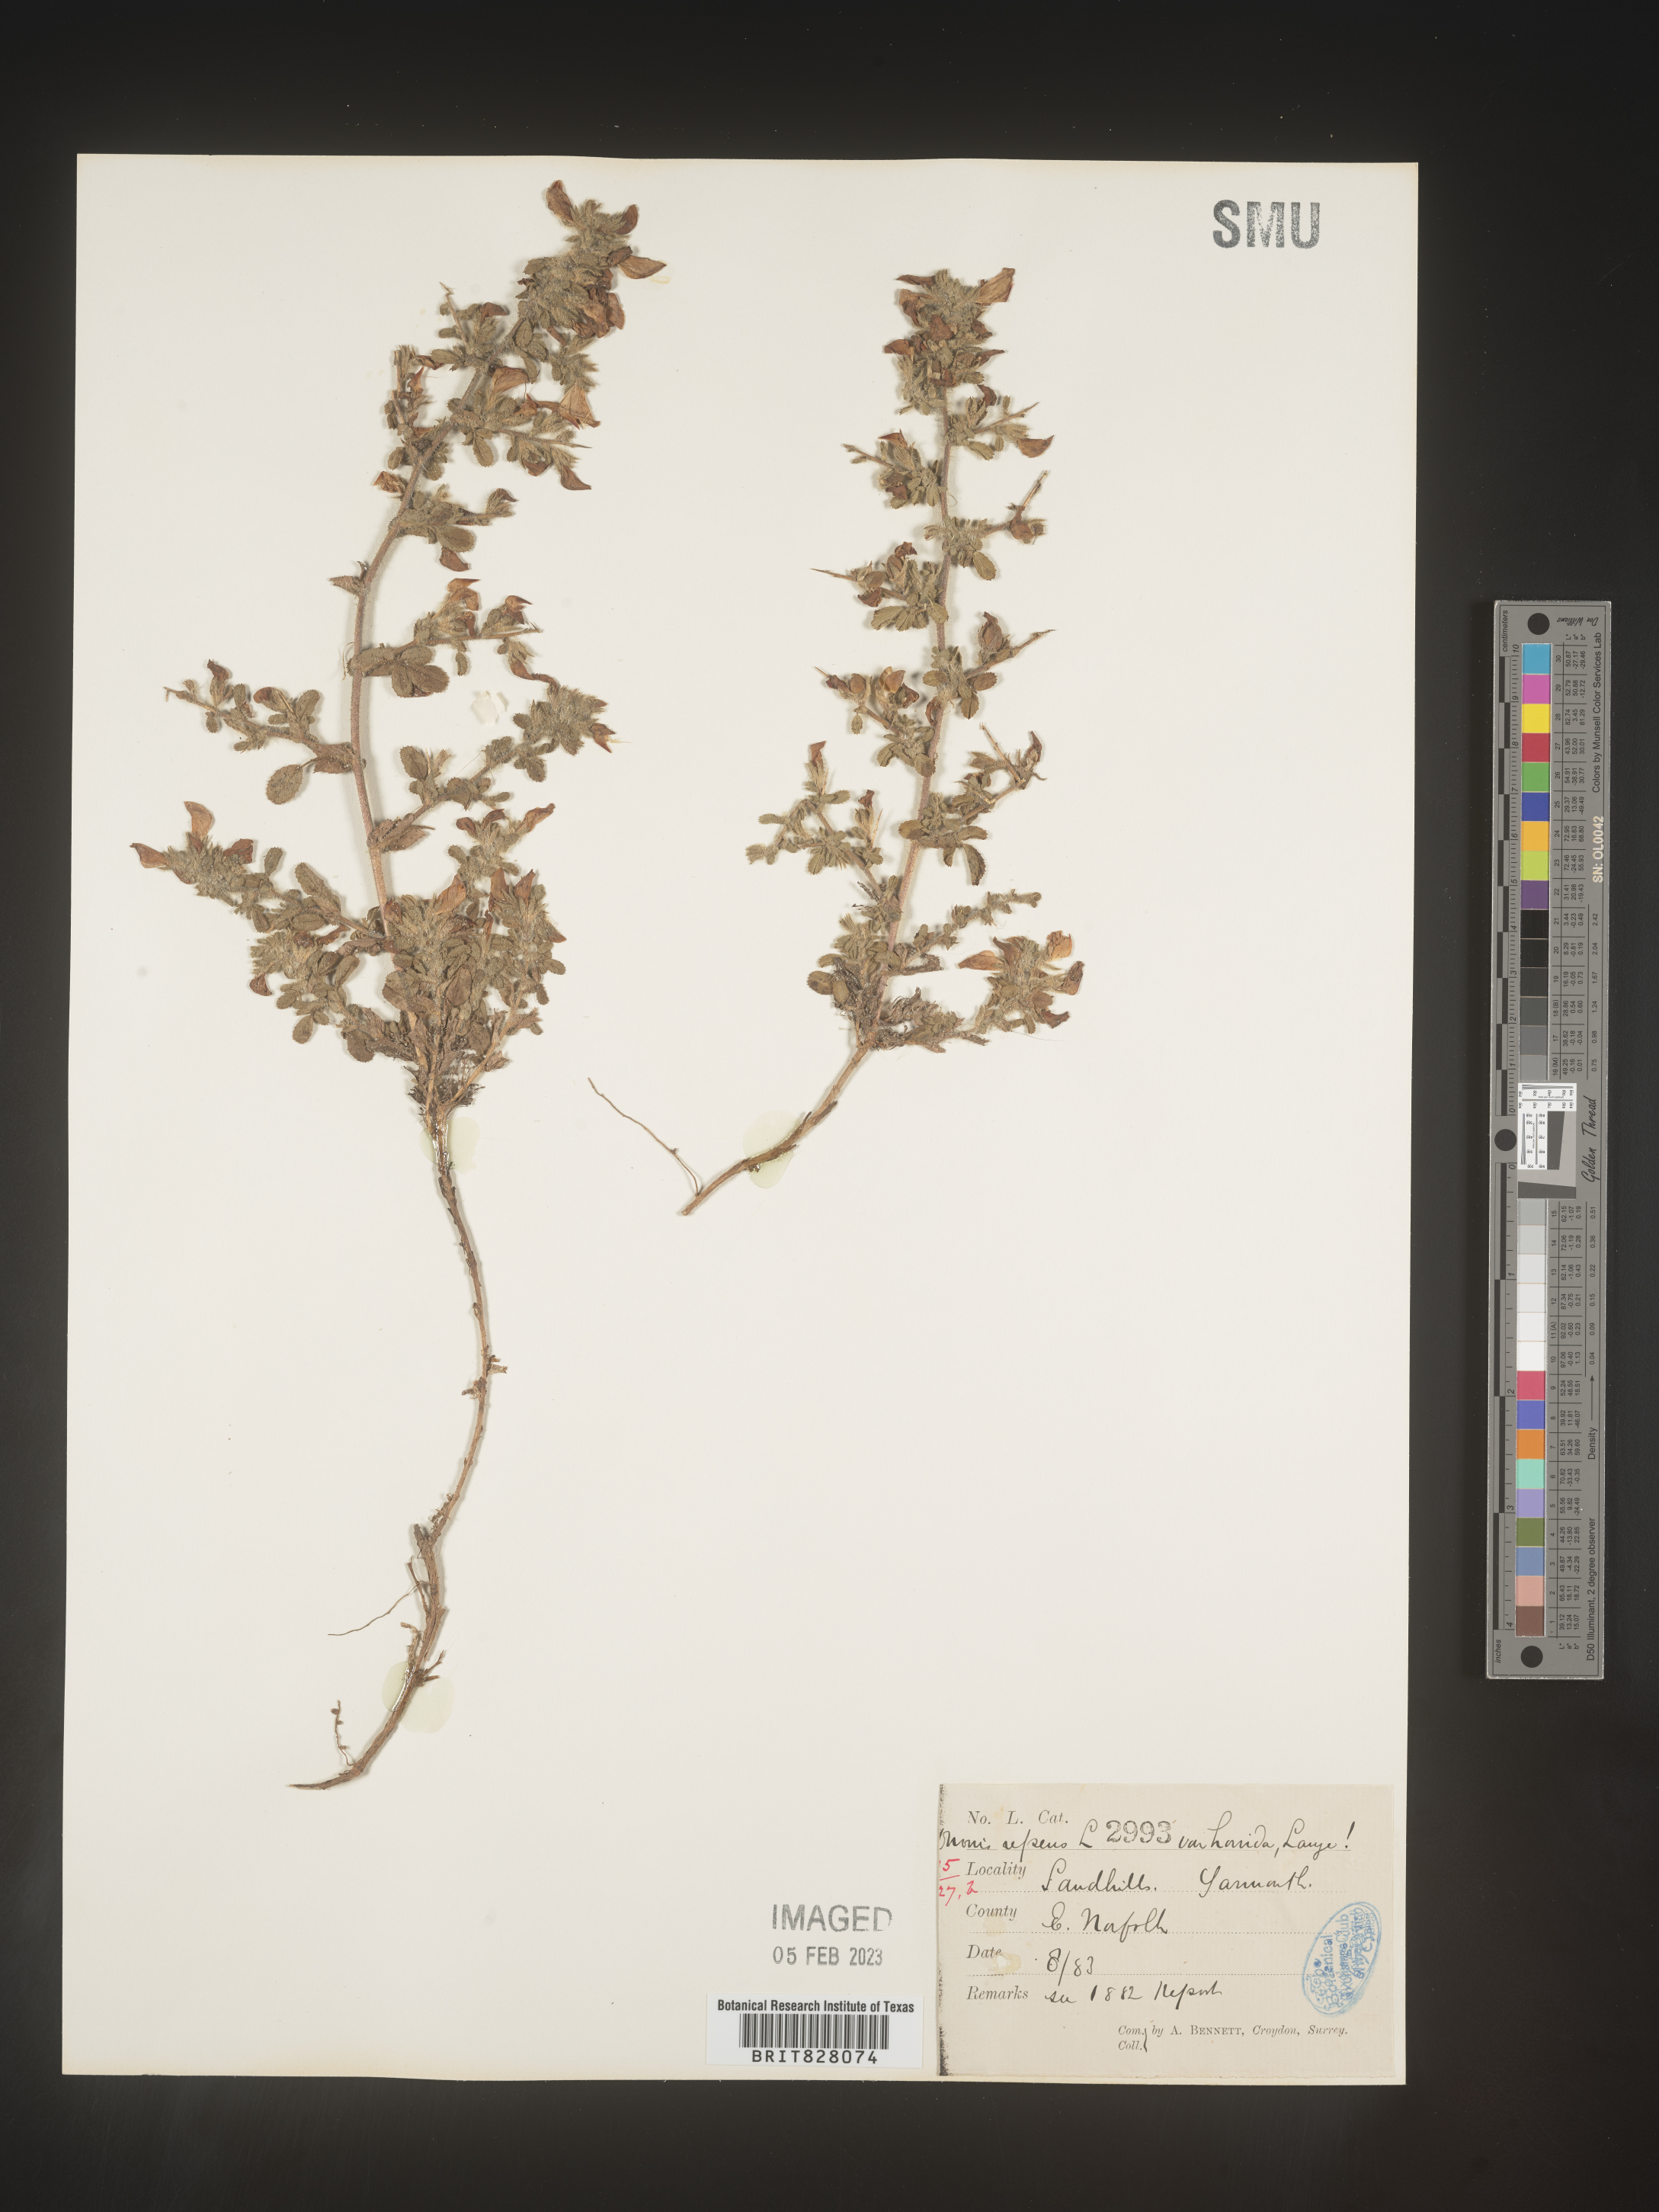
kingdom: Plantae
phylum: Tracheophyta
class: Magnoliopsida
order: Fabales
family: Fabaceae
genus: Ononis
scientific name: Ononis
